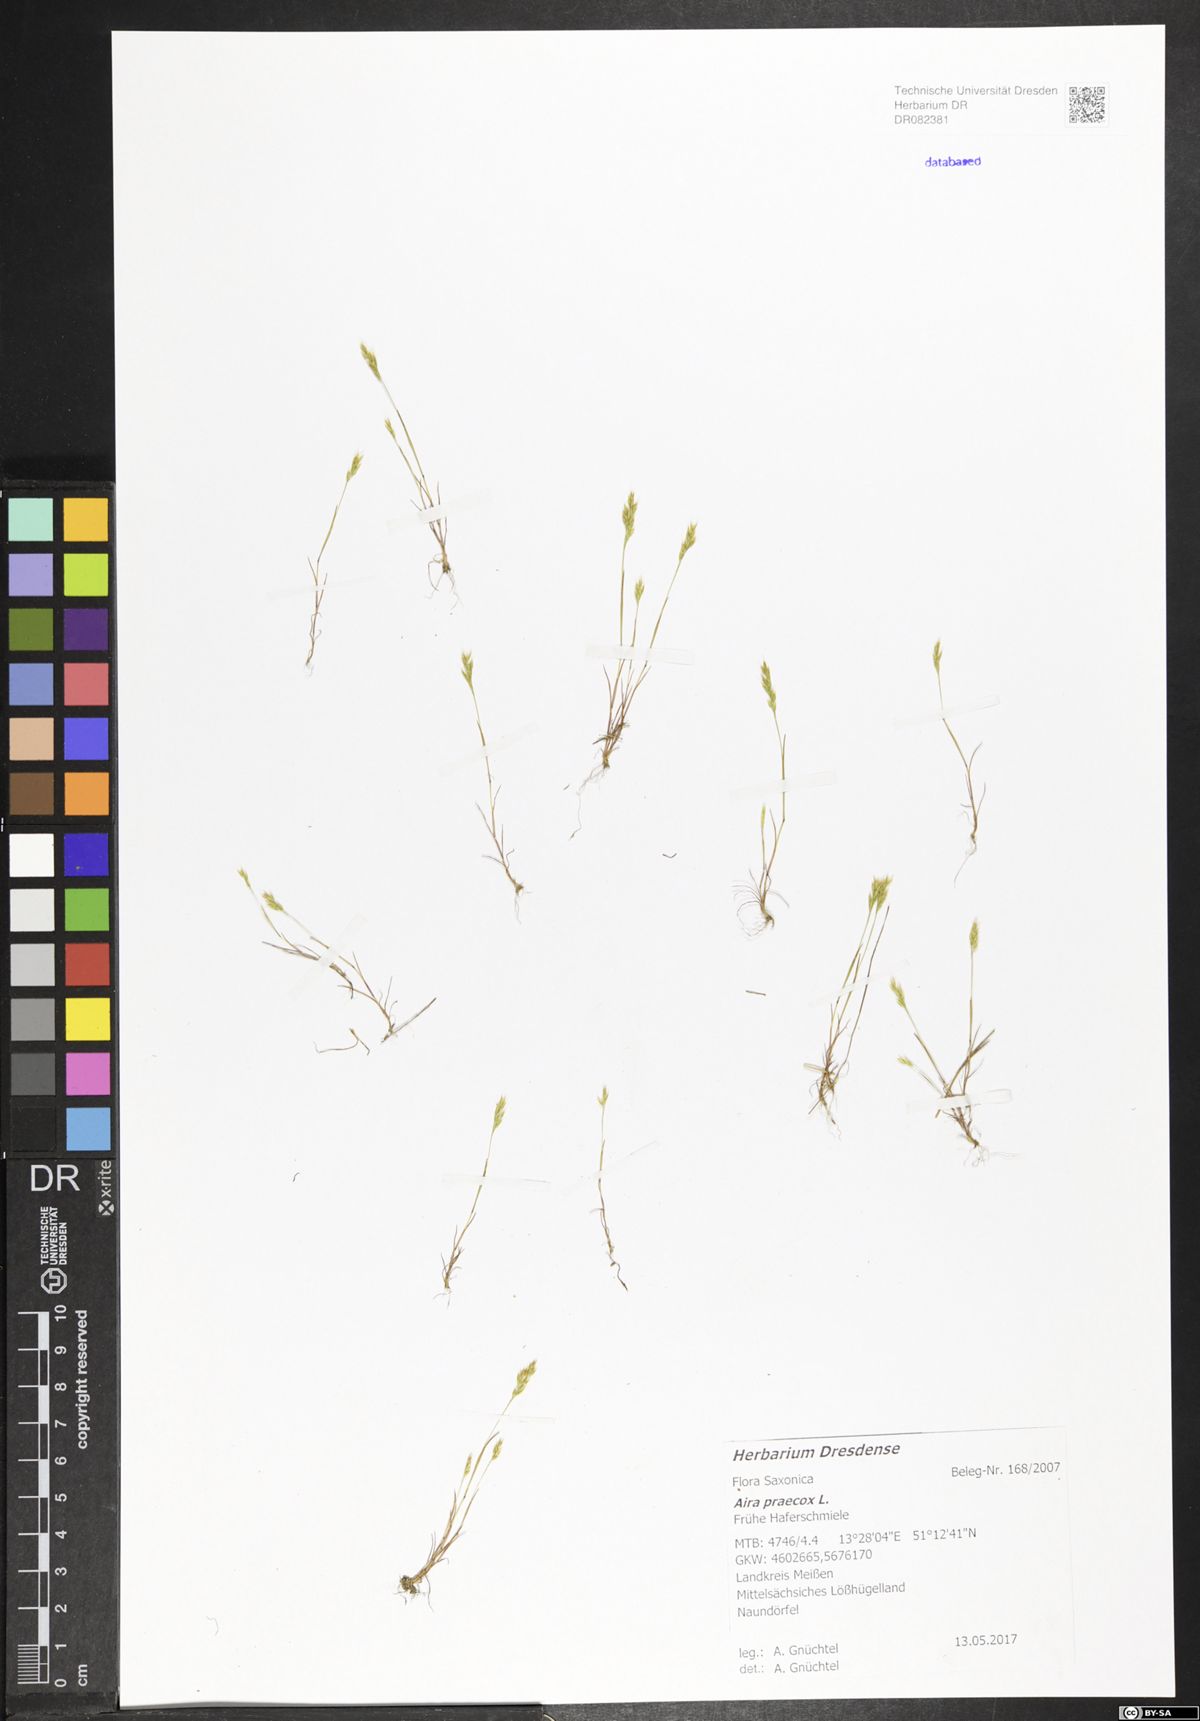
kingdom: Plantae
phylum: Tracheophyta
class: Liliopsida
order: Poales
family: Poaceae
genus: Aira
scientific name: Aira praecox
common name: Early hair-grass
